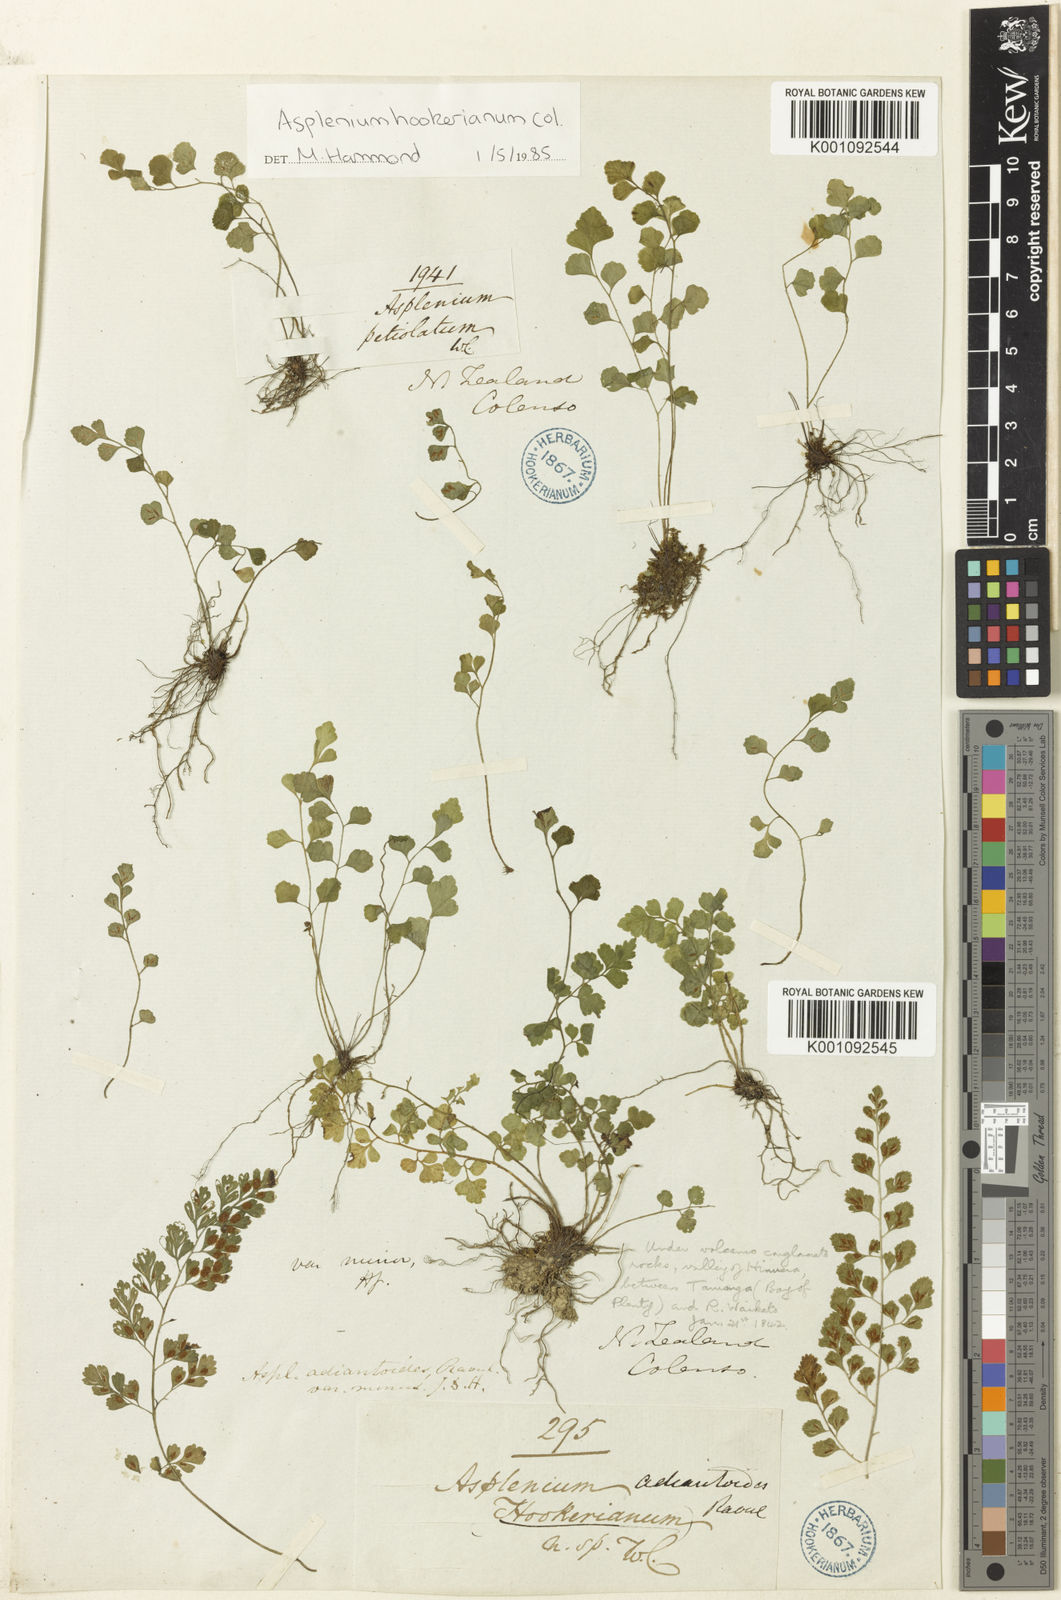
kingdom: Plantae
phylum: Tracheophyta
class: Polypodiopsida
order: Polypodiales
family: Aspleniaceae
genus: Asplenium
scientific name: Asplenium hookerianum
